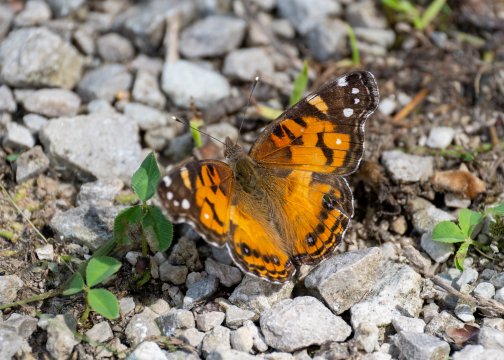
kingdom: Animalia
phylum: Arthropoda
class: Insecta
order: Lepidoptera
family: Nymphalidae
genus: Vanessa
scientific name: Vanessa virginiensis
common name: American Lady
